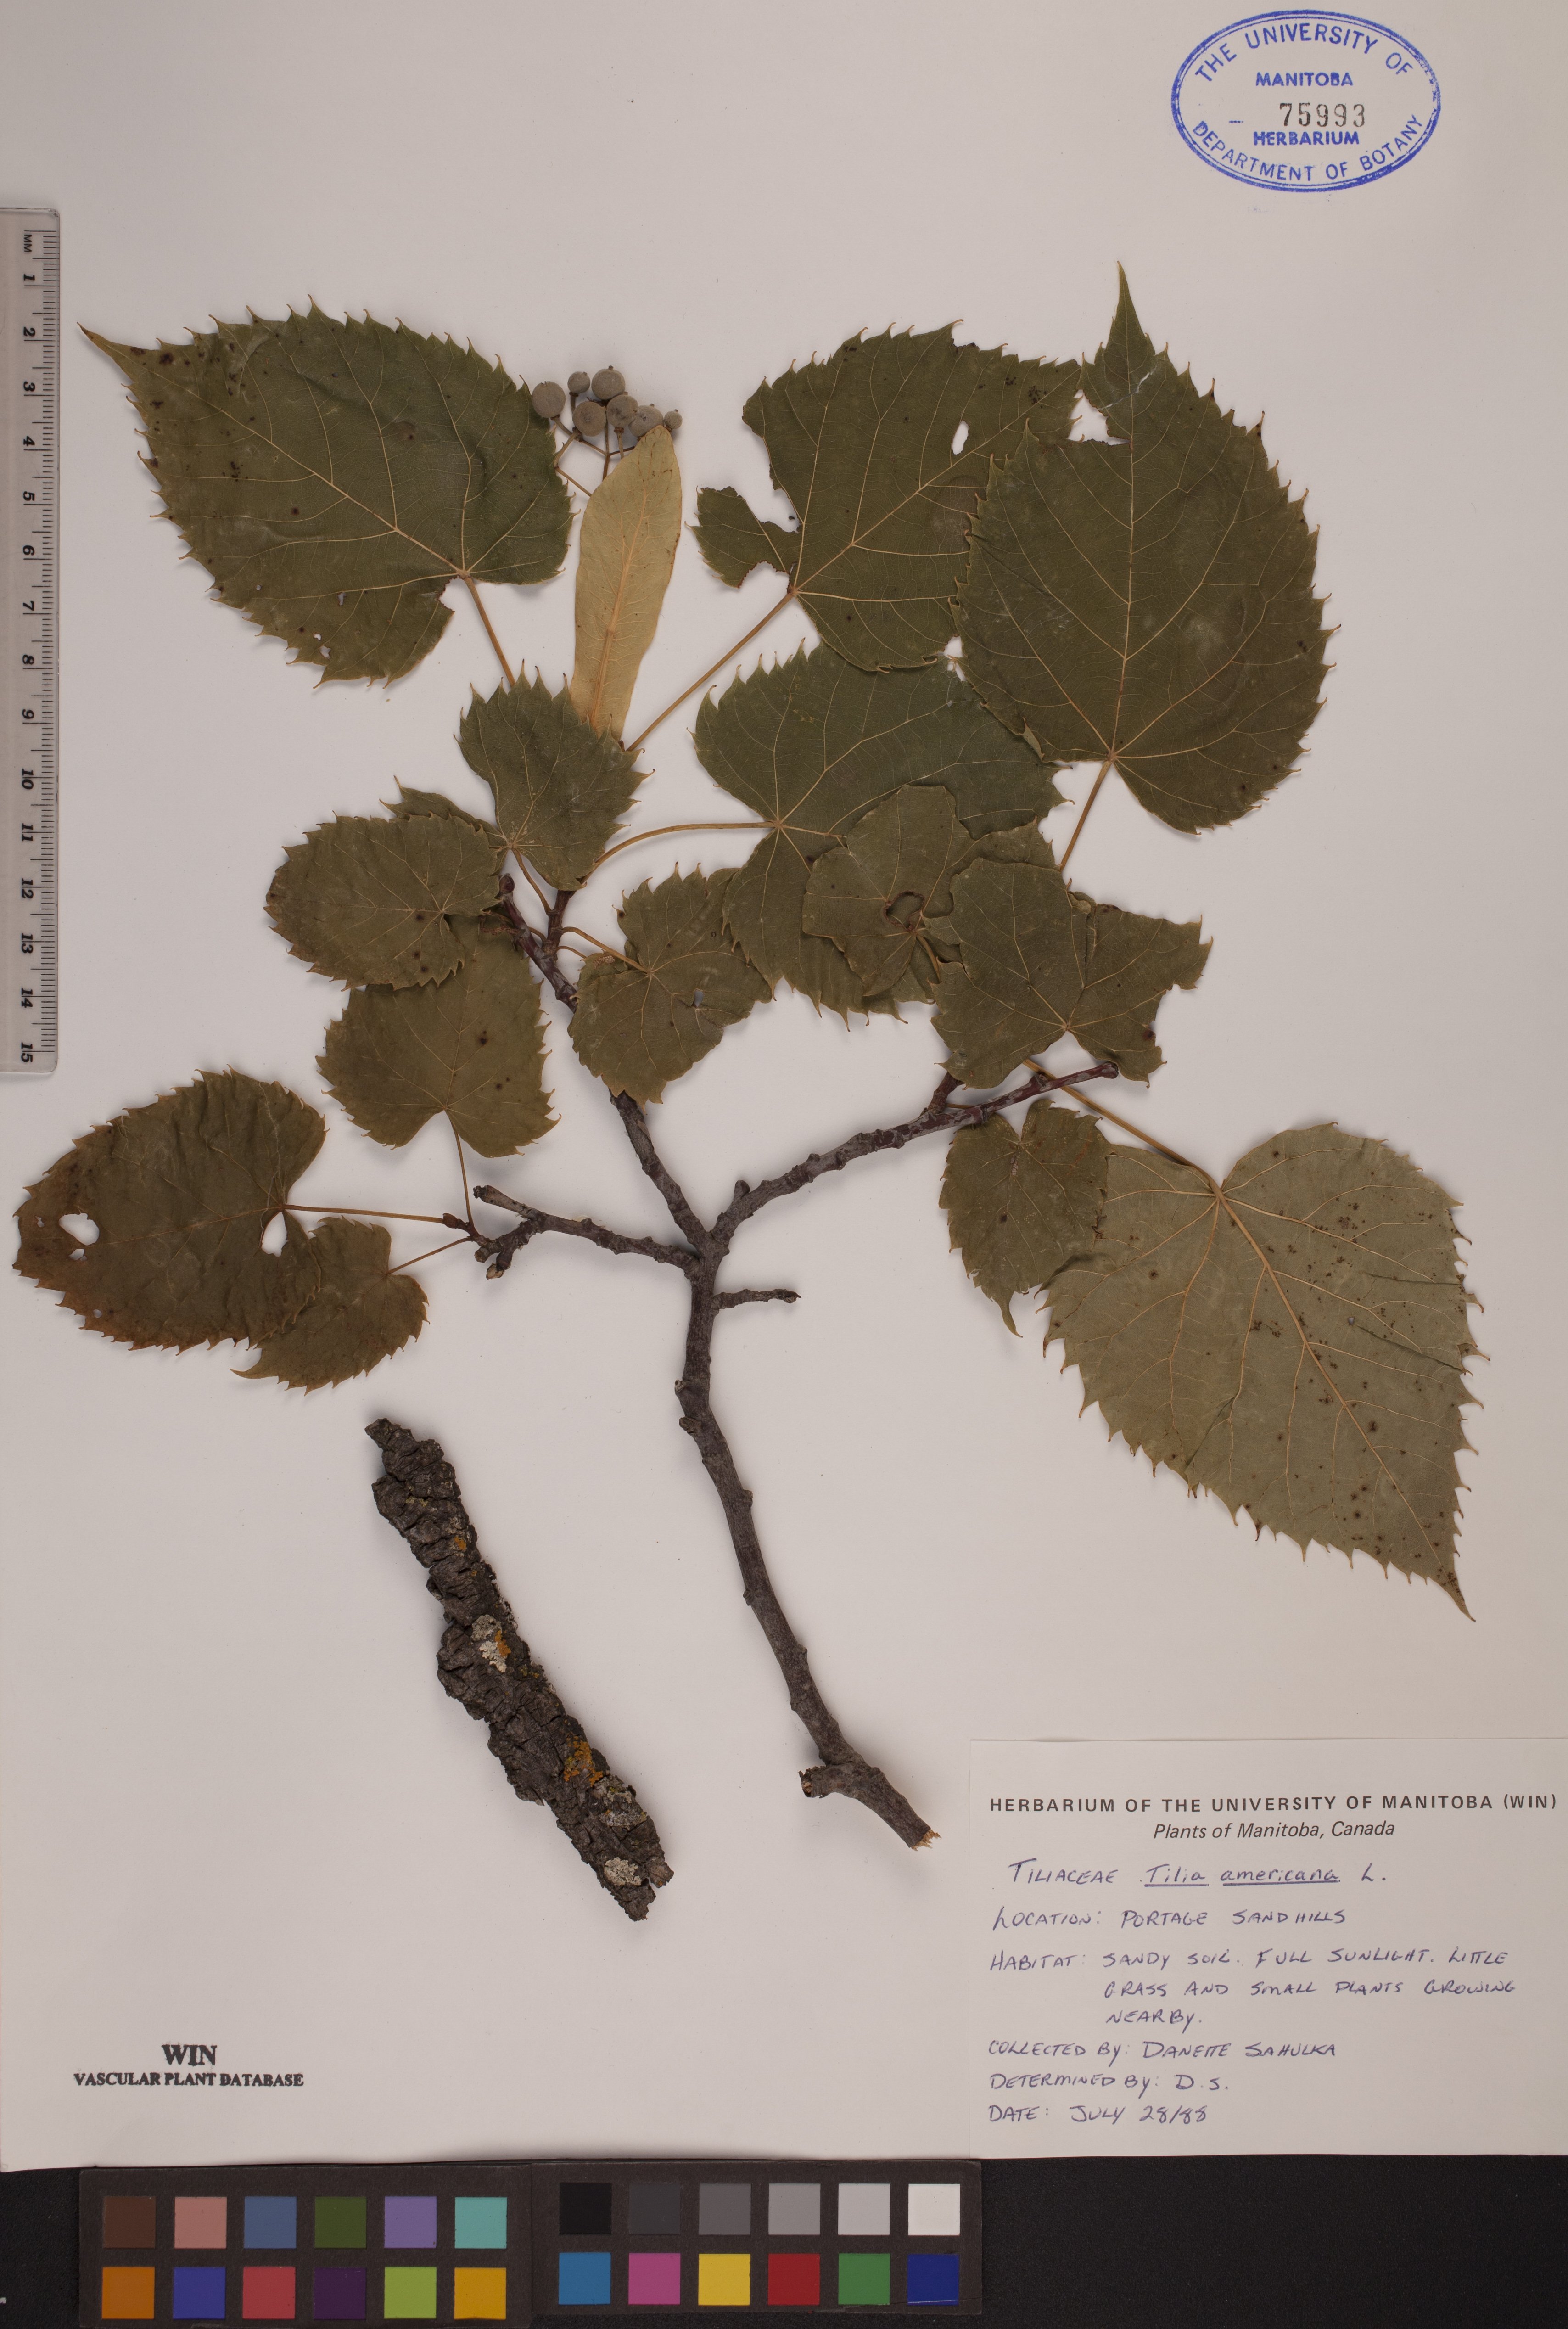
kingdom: Plantae
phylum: Tracheophyta
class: Magnoliopsida
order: Malvales
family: Malvaceae
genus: Tilia
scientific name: Tilia americana
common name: Basswood
